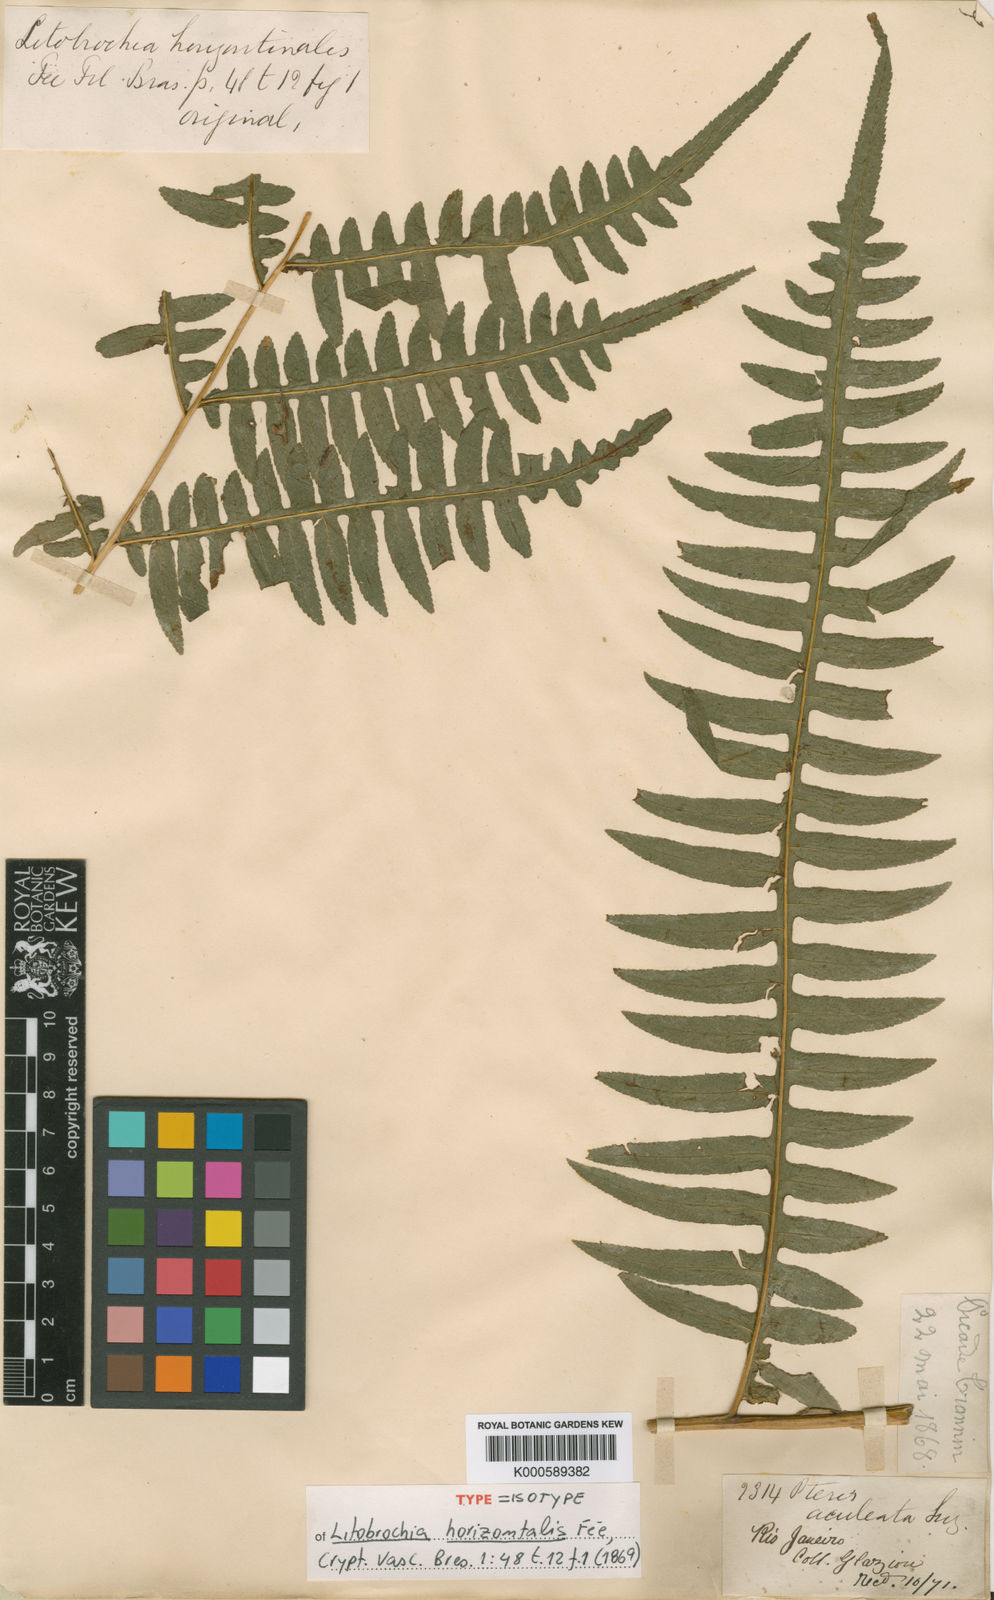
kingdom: Plantae
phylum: Tracheophyta
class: Polypodiopsida
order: Polypodiales
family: Pteridaceae
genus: Pteris
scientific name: Pteris
